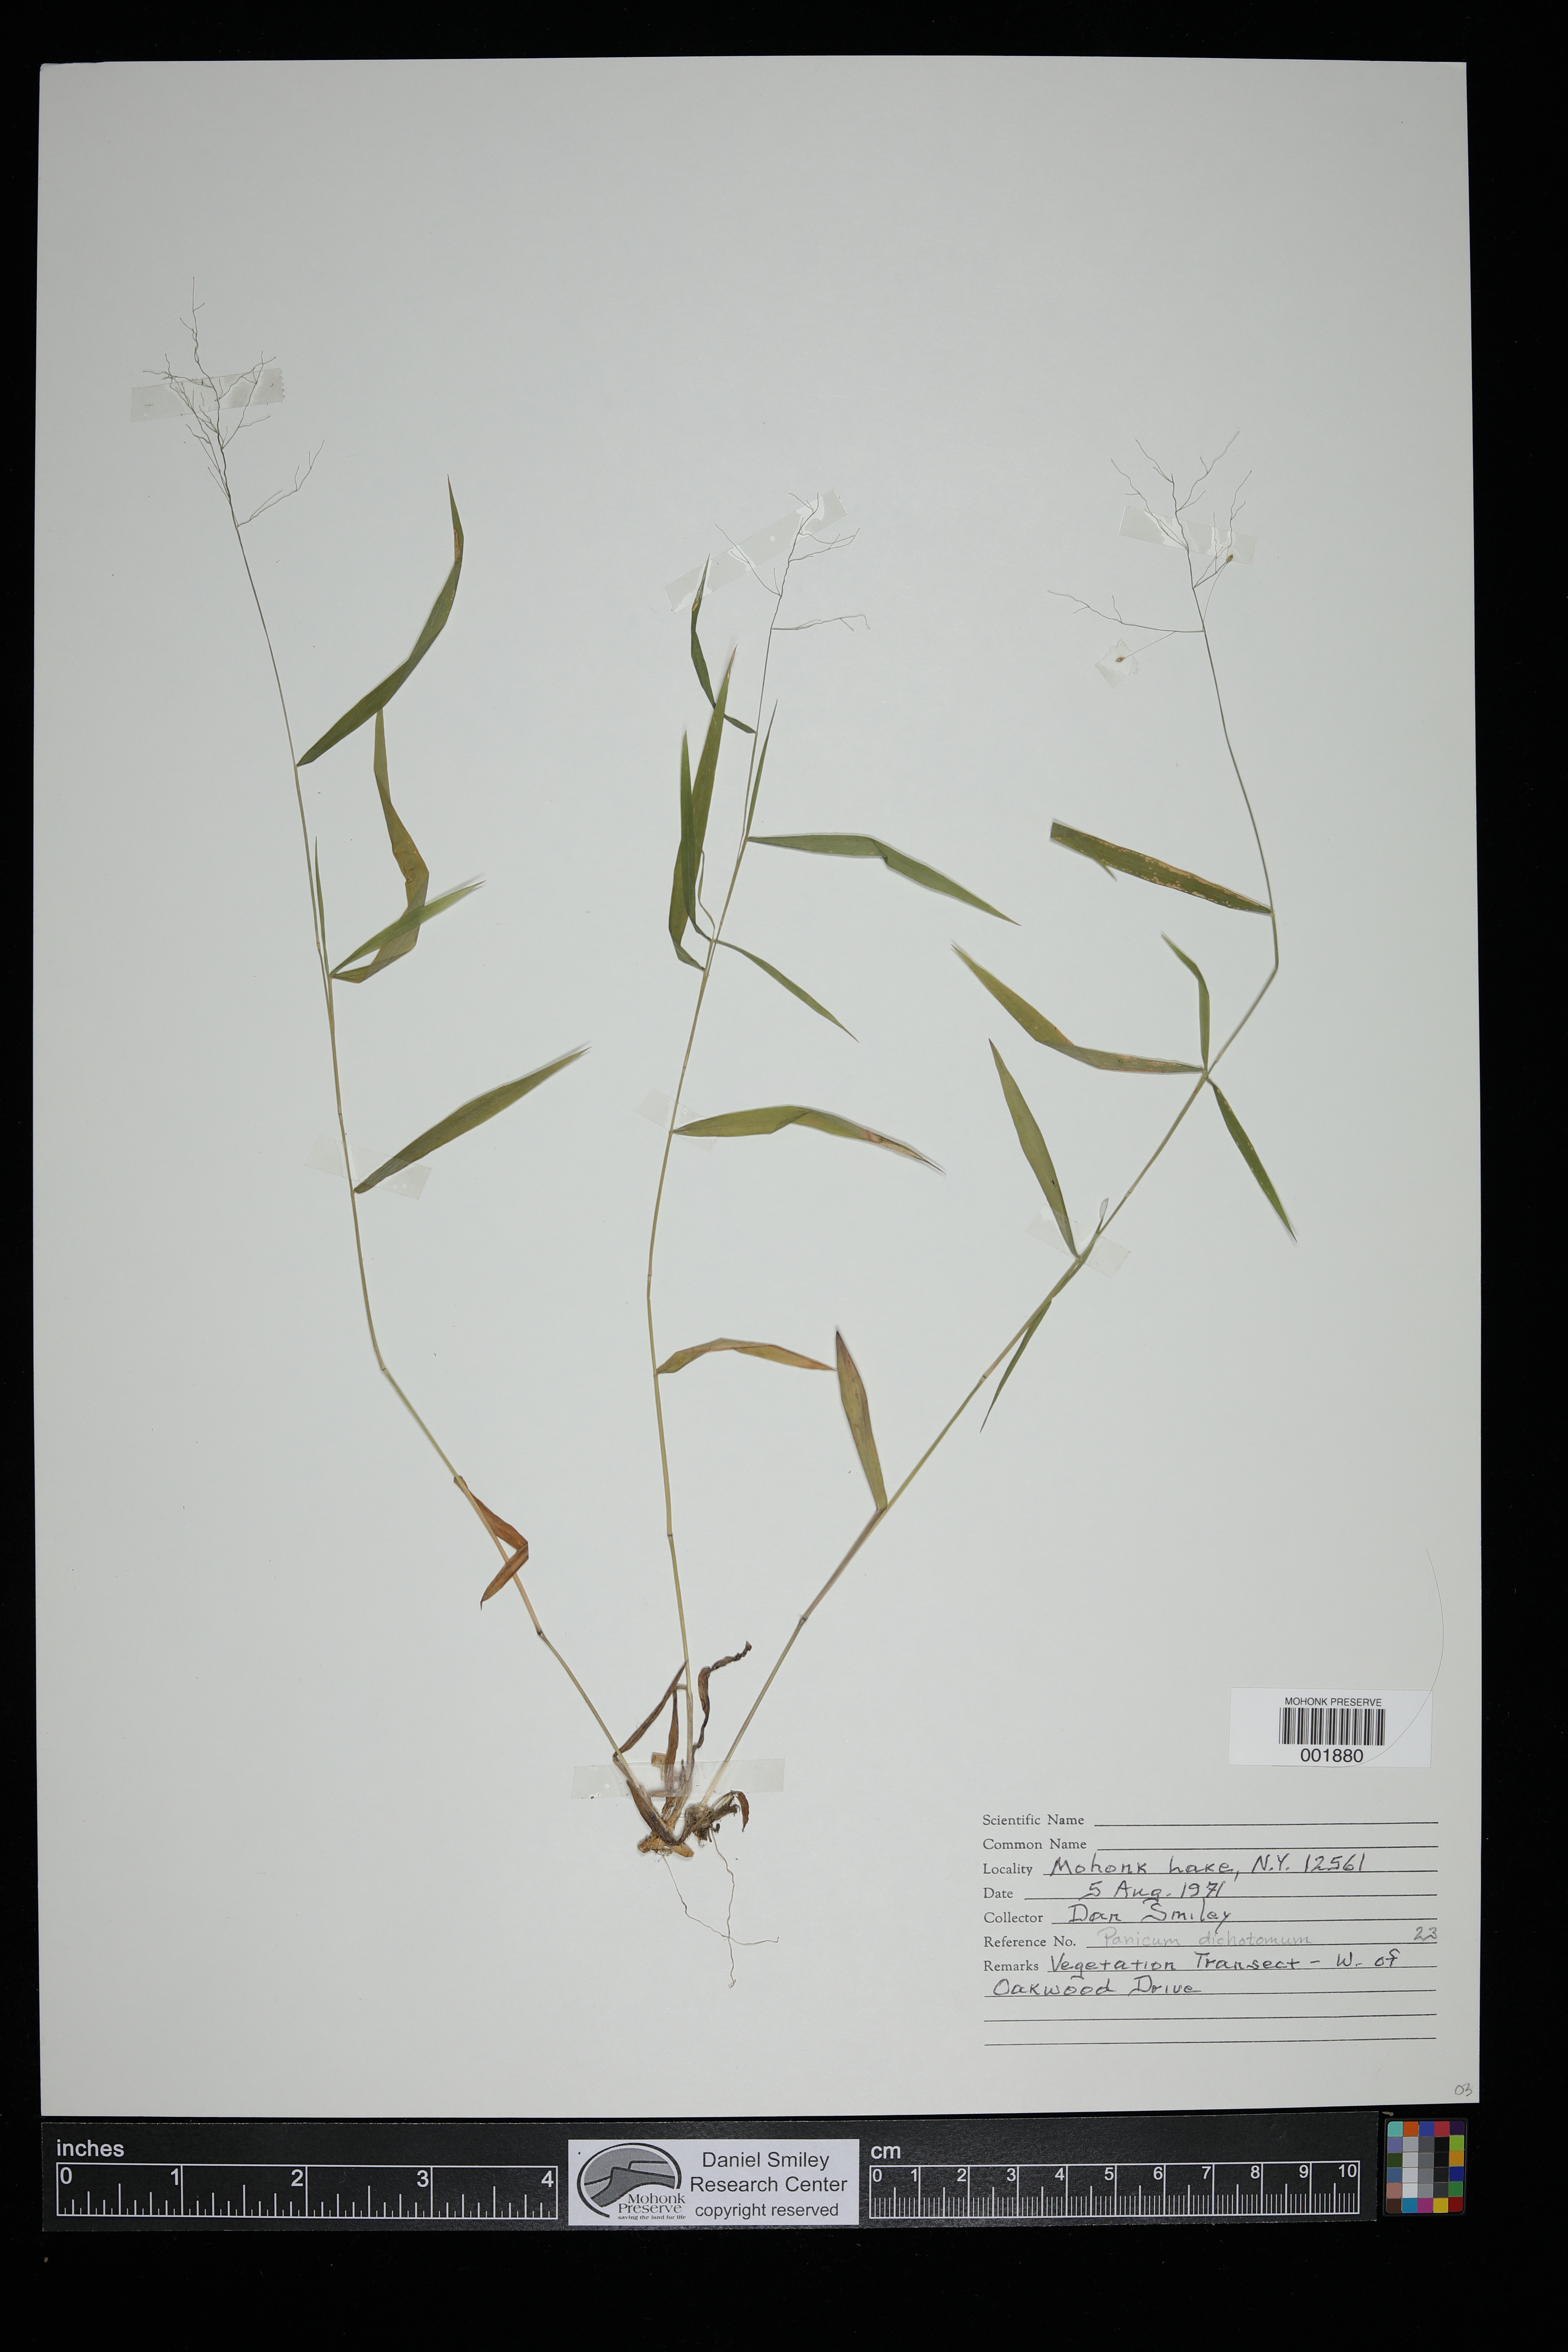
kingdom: Plantae
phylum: Tracheophyta
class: Liliopsida
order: Poales
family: Poaceae
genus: Dichanthelium
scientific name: Dichanthelium dichotomum
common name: Cypress panicgrass
